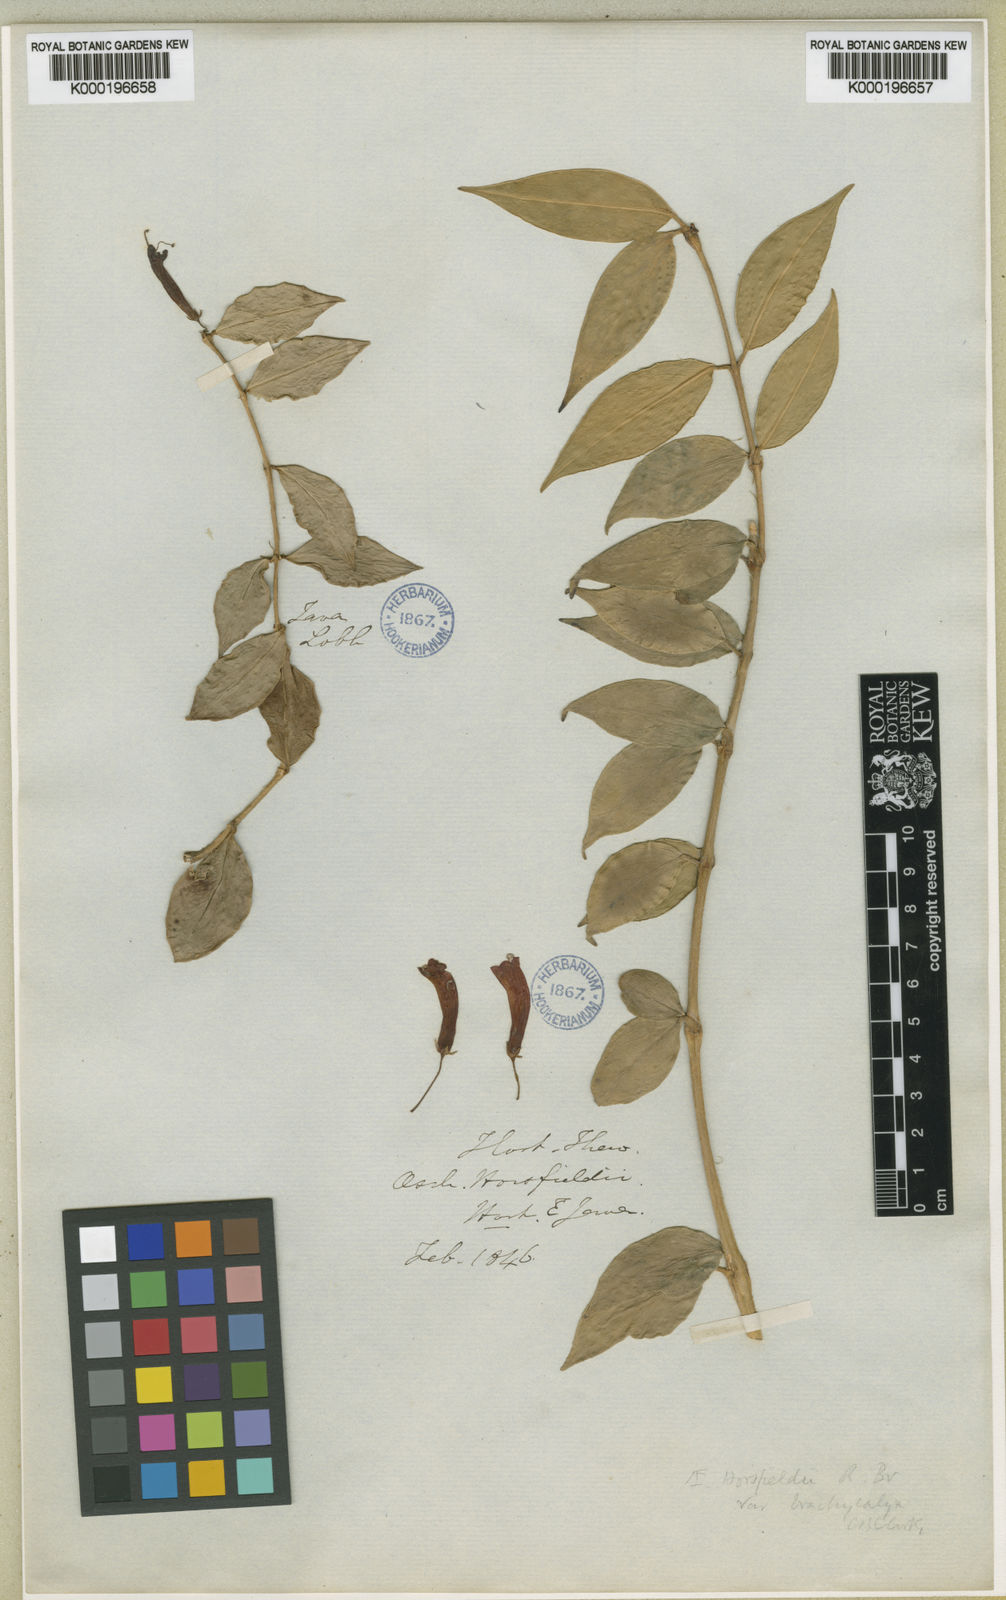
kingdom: Plantae
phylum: Tracheophyta
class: Magnoliopsida
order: Lamiales
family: Gesneriaceae
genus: Aeschynanthus
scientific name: Aeschynanthus horsfieldii
